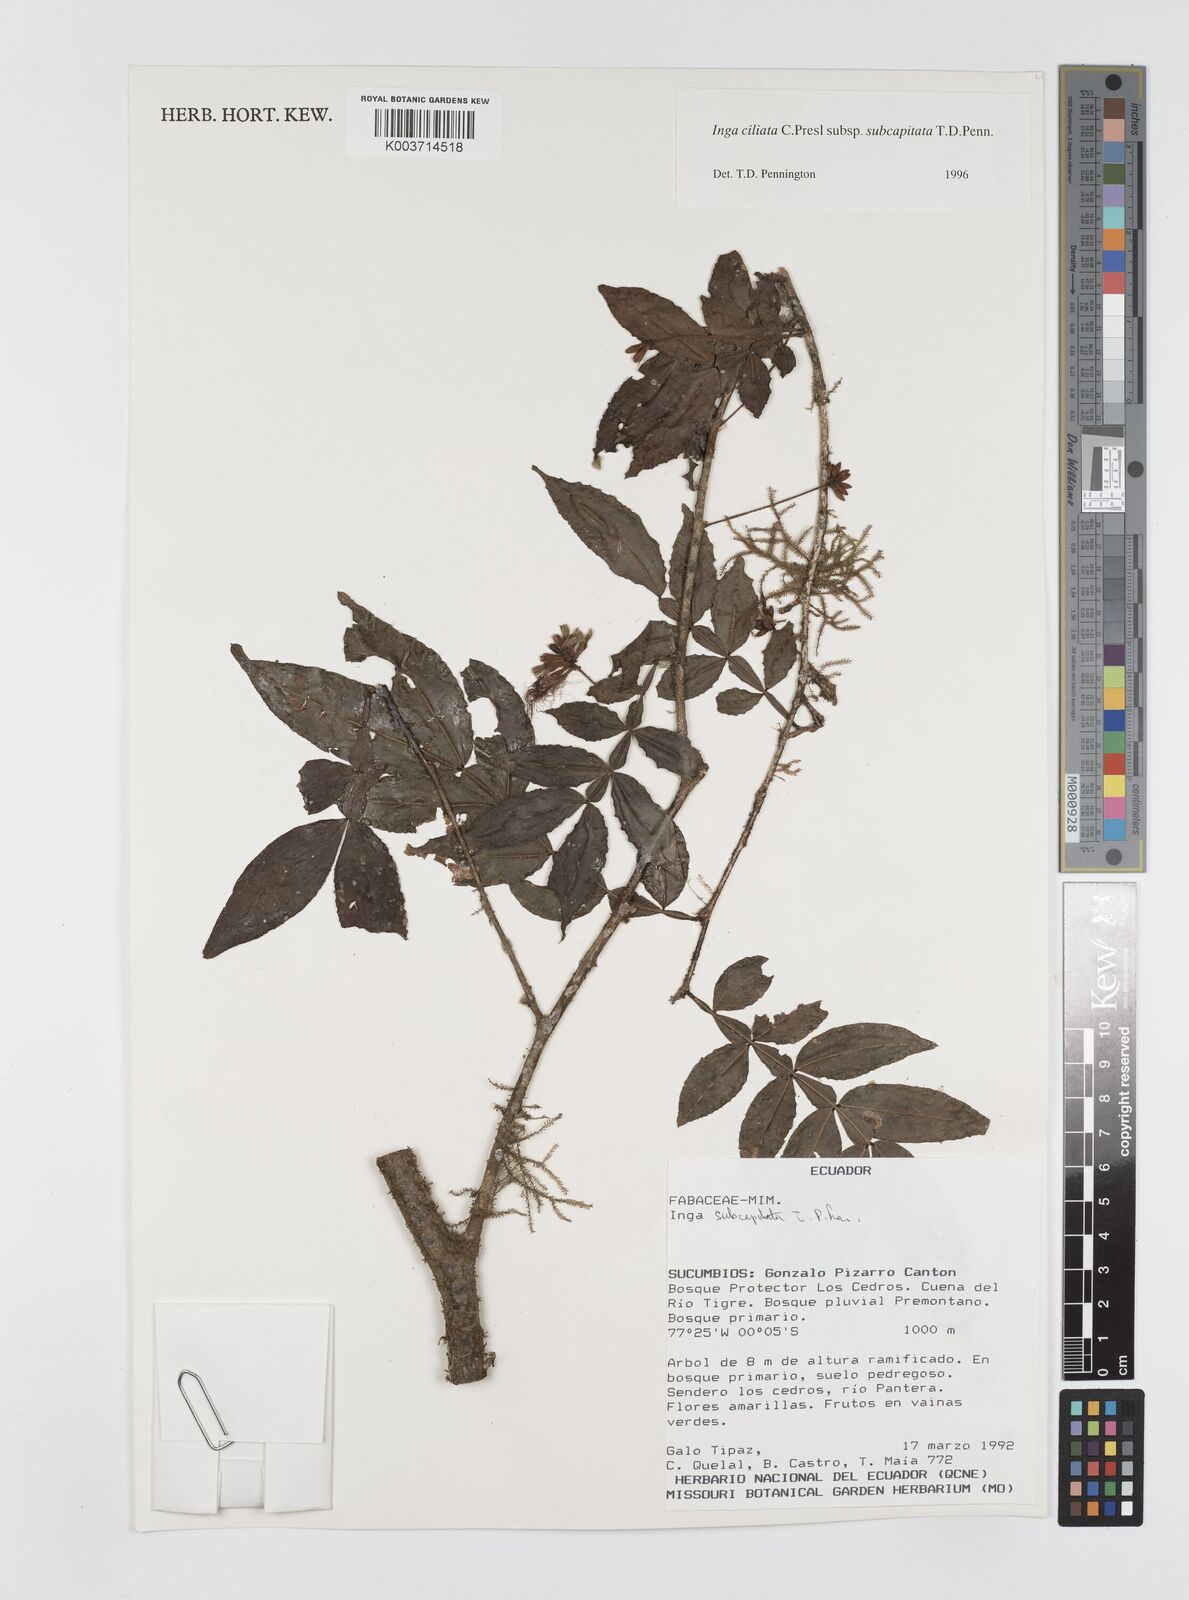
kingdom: Plantae
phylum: Tracheophyta
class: Magnoliopsida
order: Fabales
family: Fabaceae
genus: Inga
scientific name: Inga ciliata
